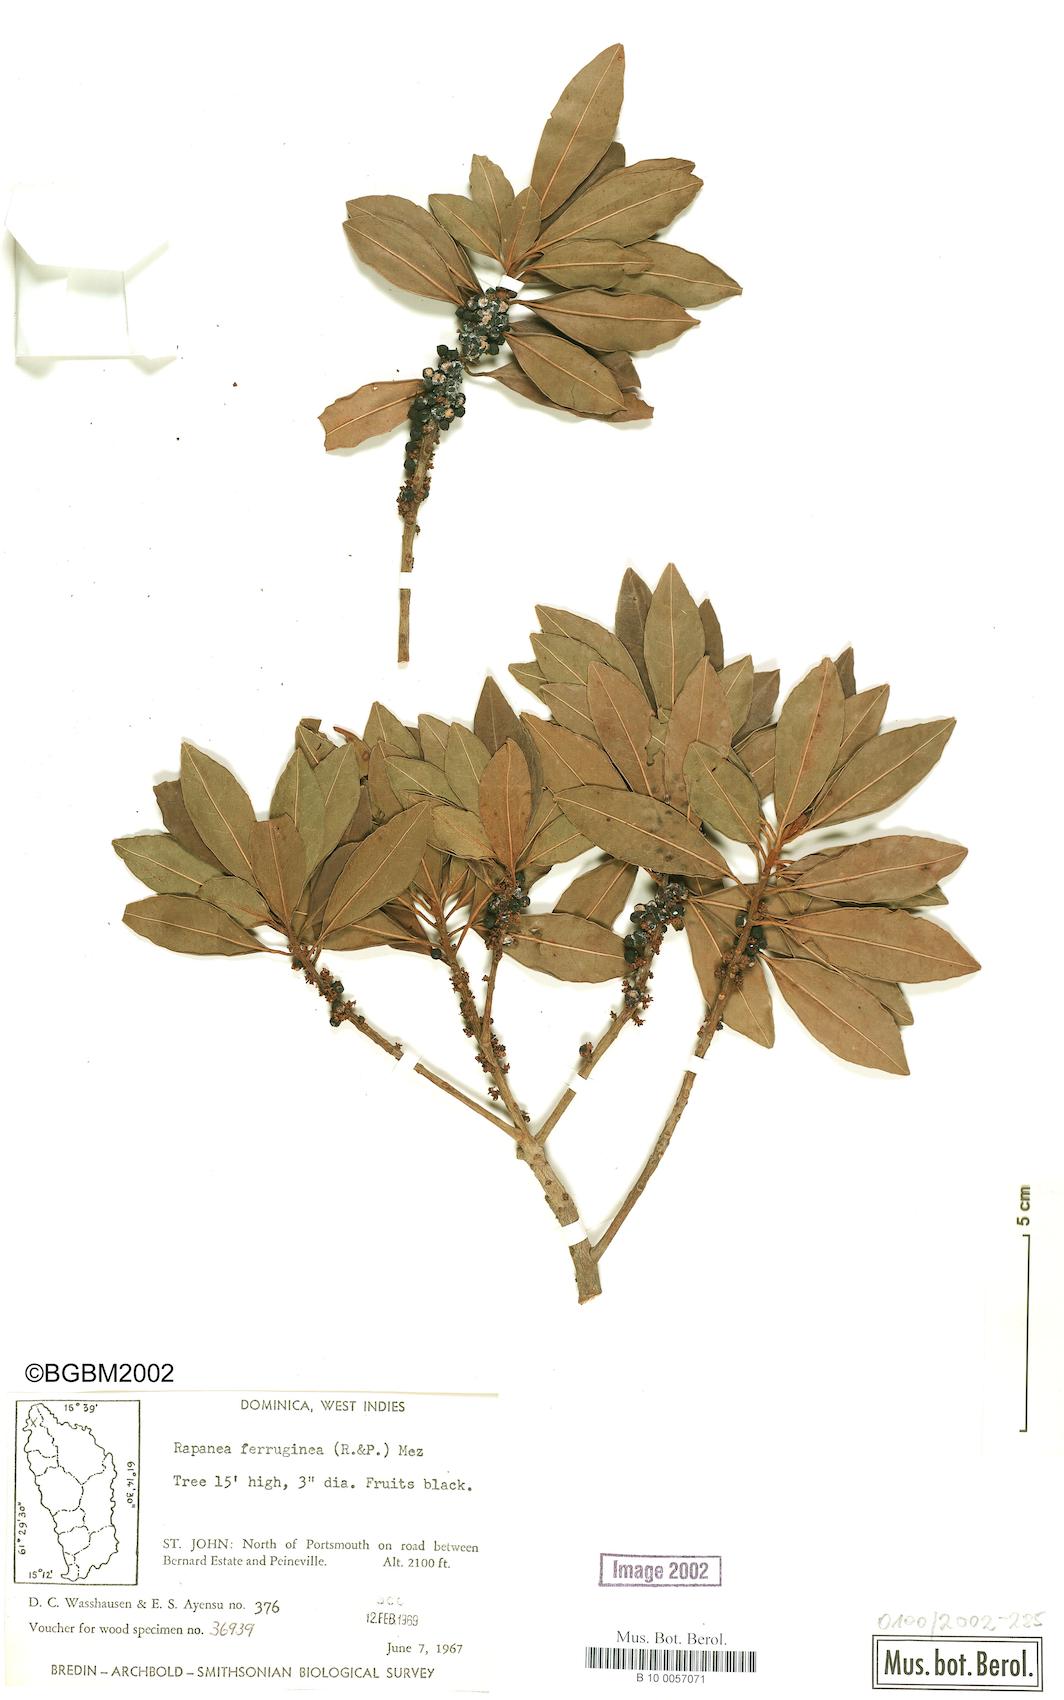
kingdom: Plantae
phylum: Tracheophyta
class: Magnoliopsida
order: Ericales
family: Primulaceae
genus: Myrsine
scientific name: Myrsine coriacea
